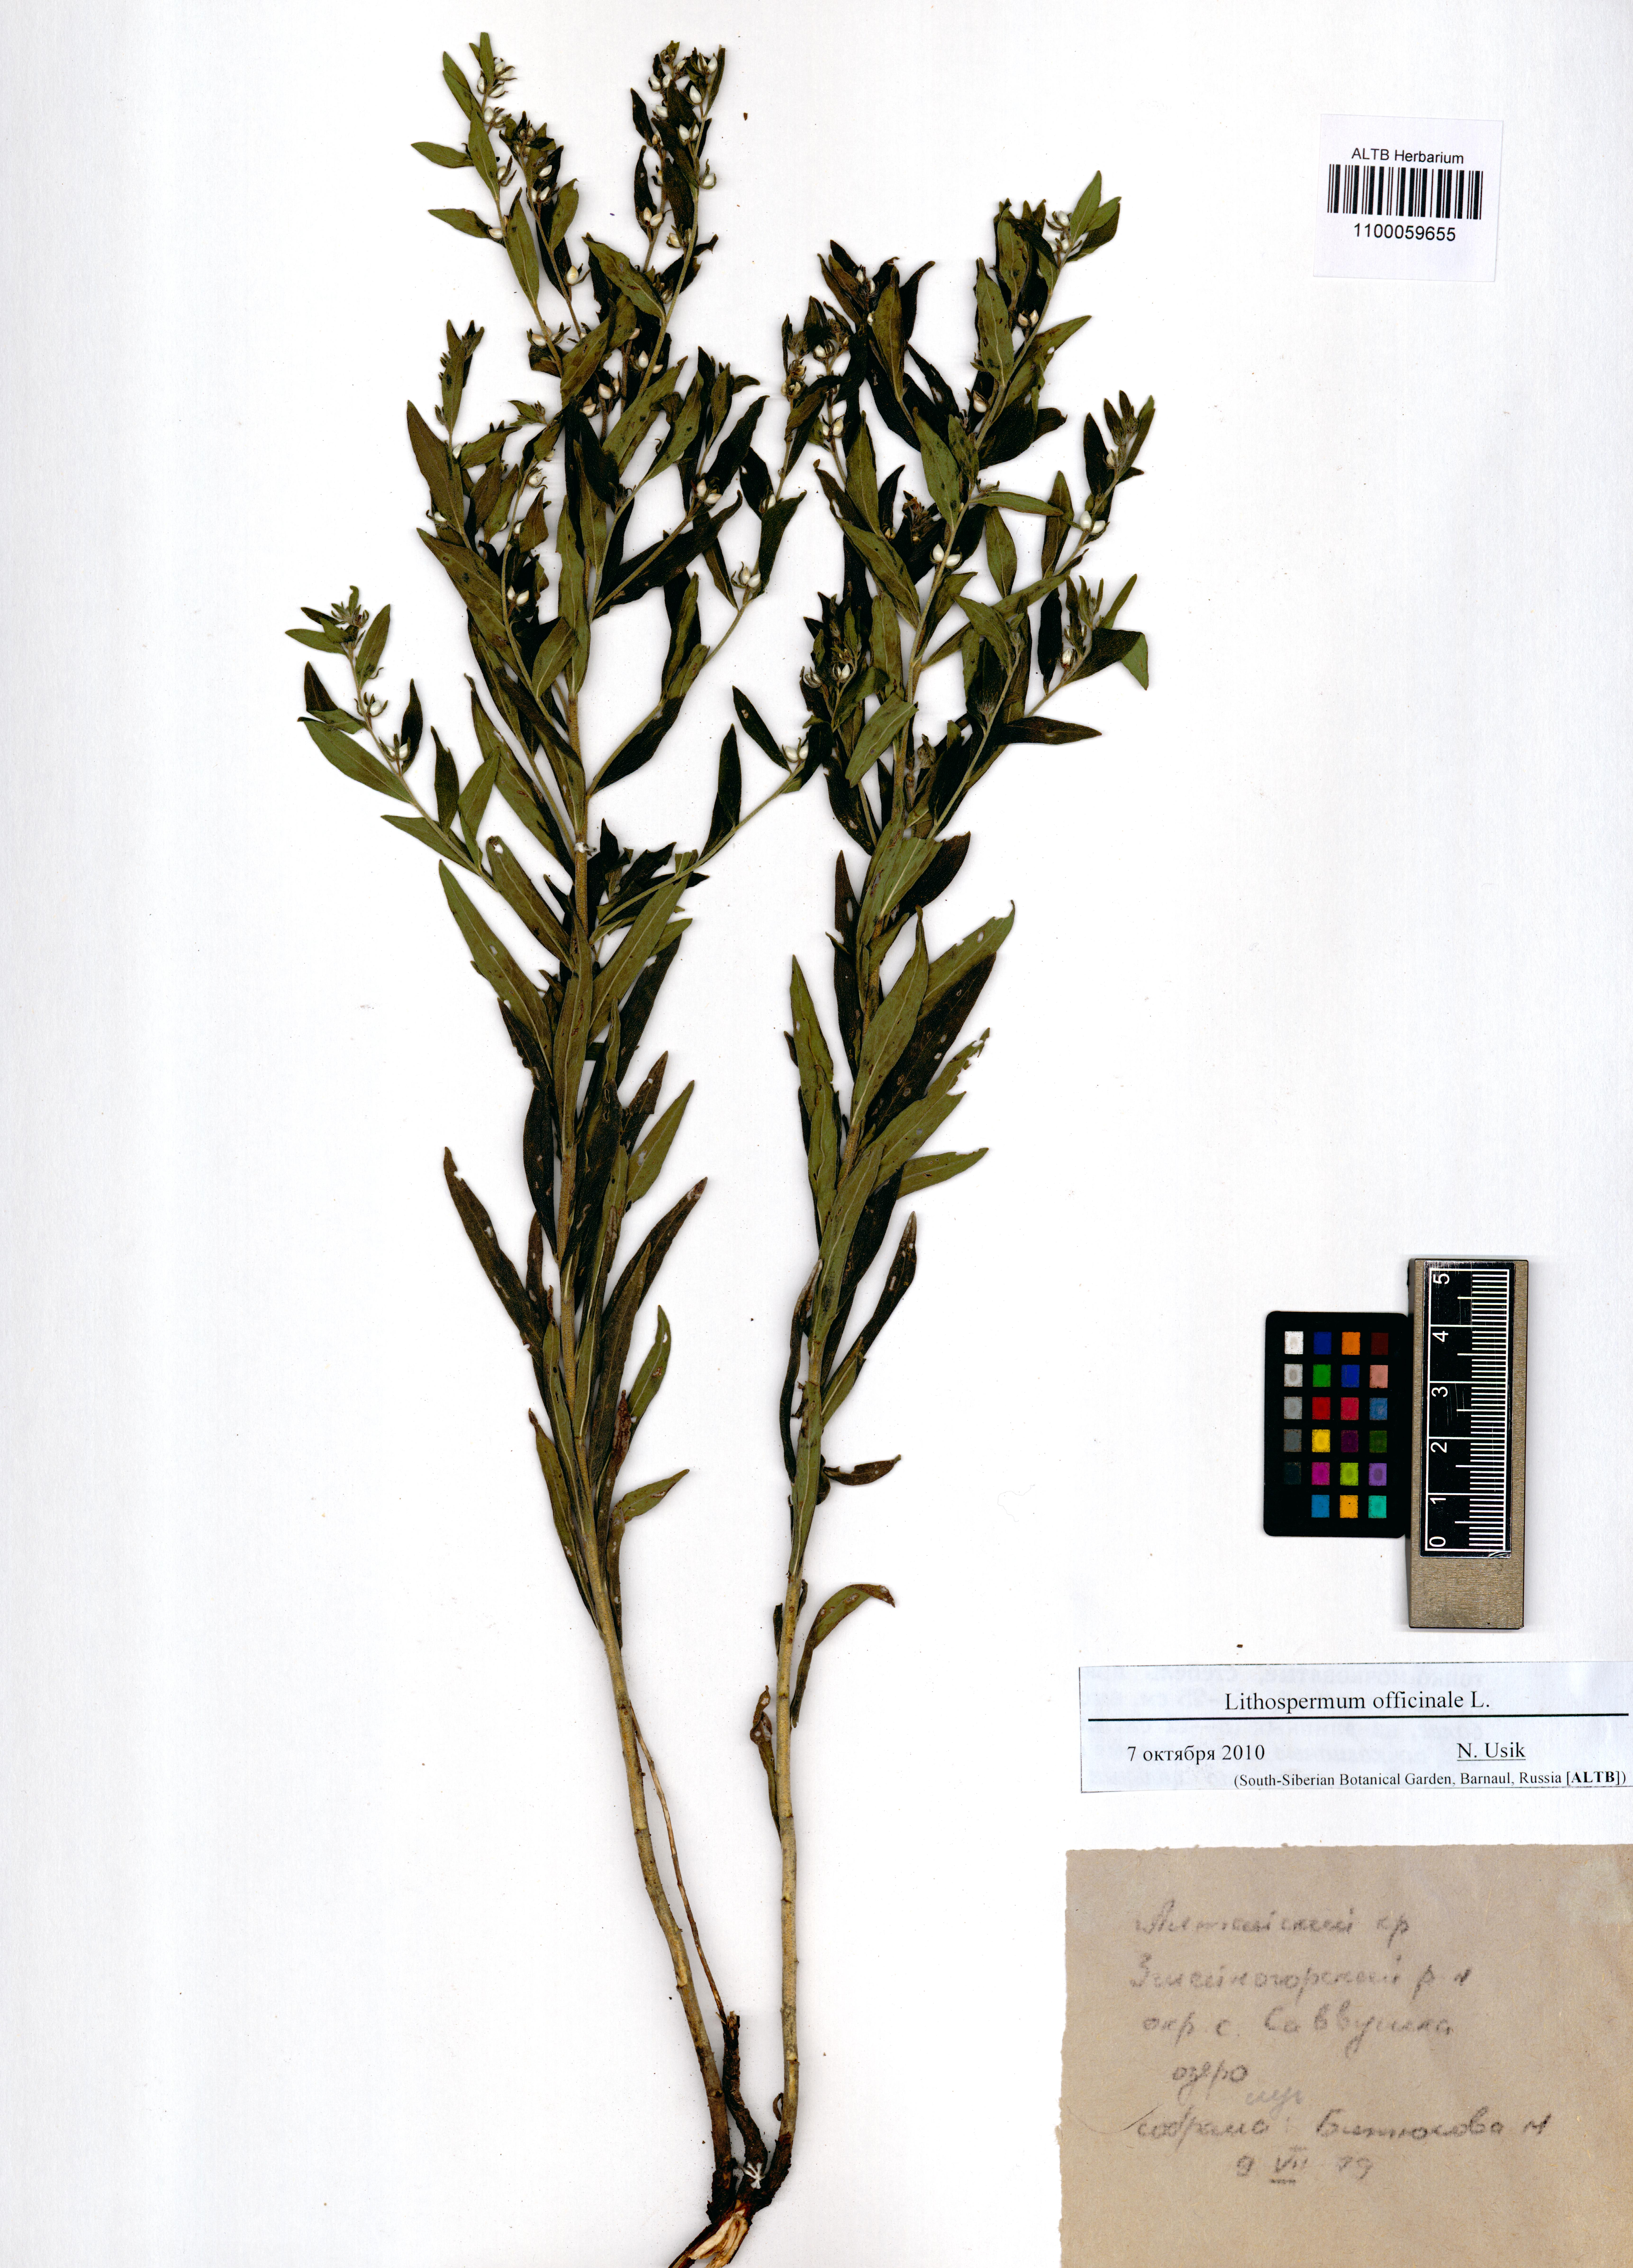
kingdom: Plantae
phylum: Tracheophyta
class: Magnoliopsida
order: Boraginales
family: Boraginaceae
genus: Lithospermum
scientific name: Lithospermum officinale
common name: Common gromwell
